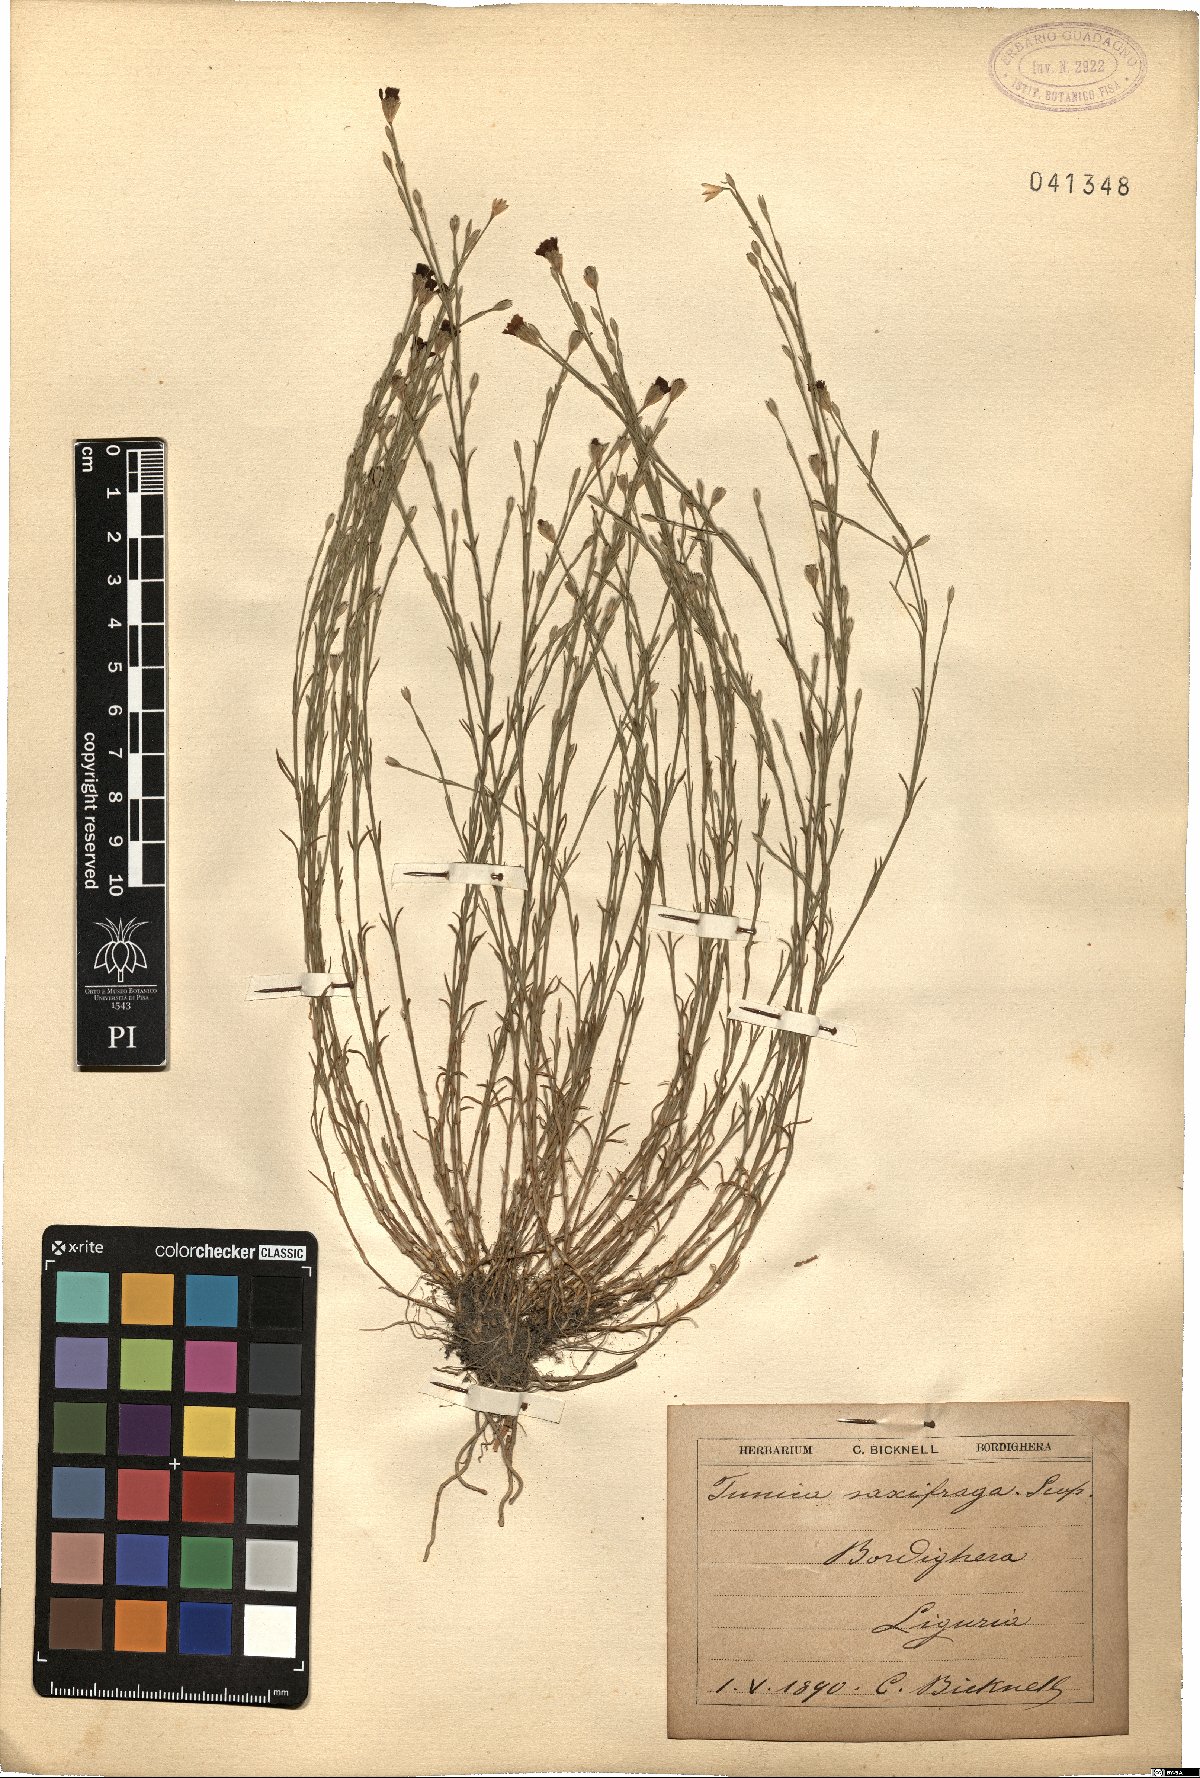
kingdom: Plantae
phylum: Tracheophyta
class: Magnoliopsida
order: Caryophyllales
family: Caryophyllaceae
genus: Petrorhagia
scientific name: Petrorhagia saxifraga
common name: Tunicflower
